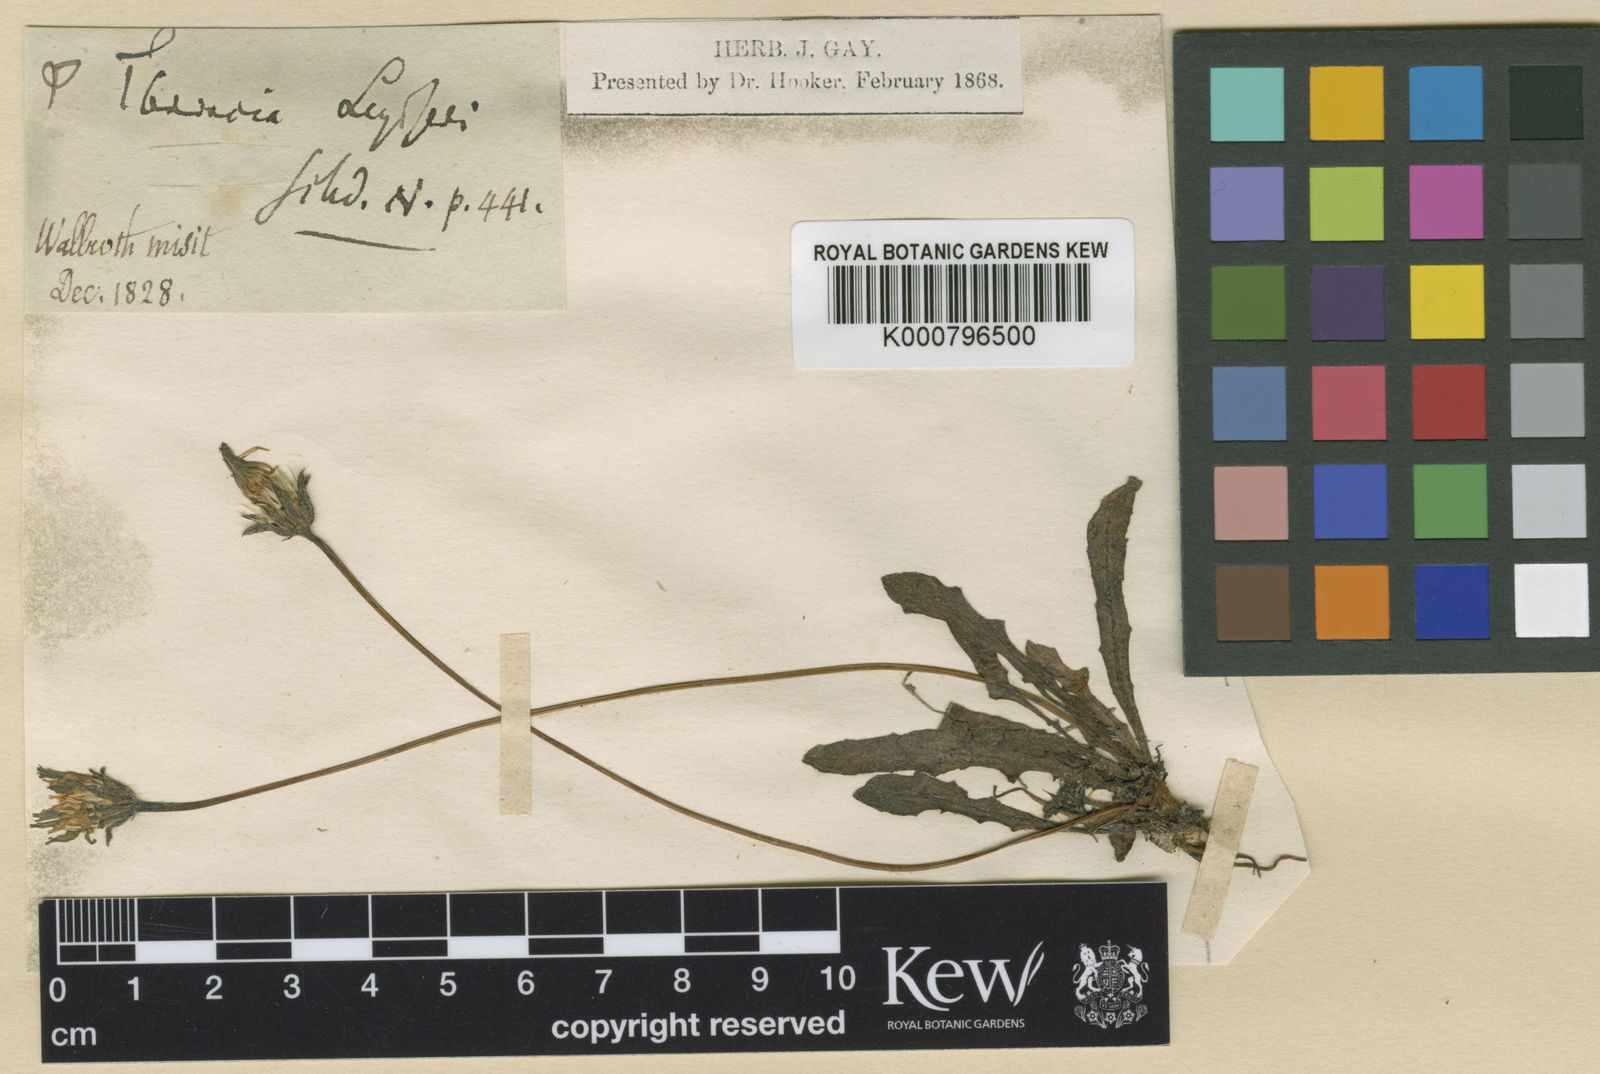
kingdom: Plantae
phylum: Tracheophyta
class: Magnoliopsida
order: Asterales
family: Asteraceae
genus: Leontodon
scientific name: Leontodon
